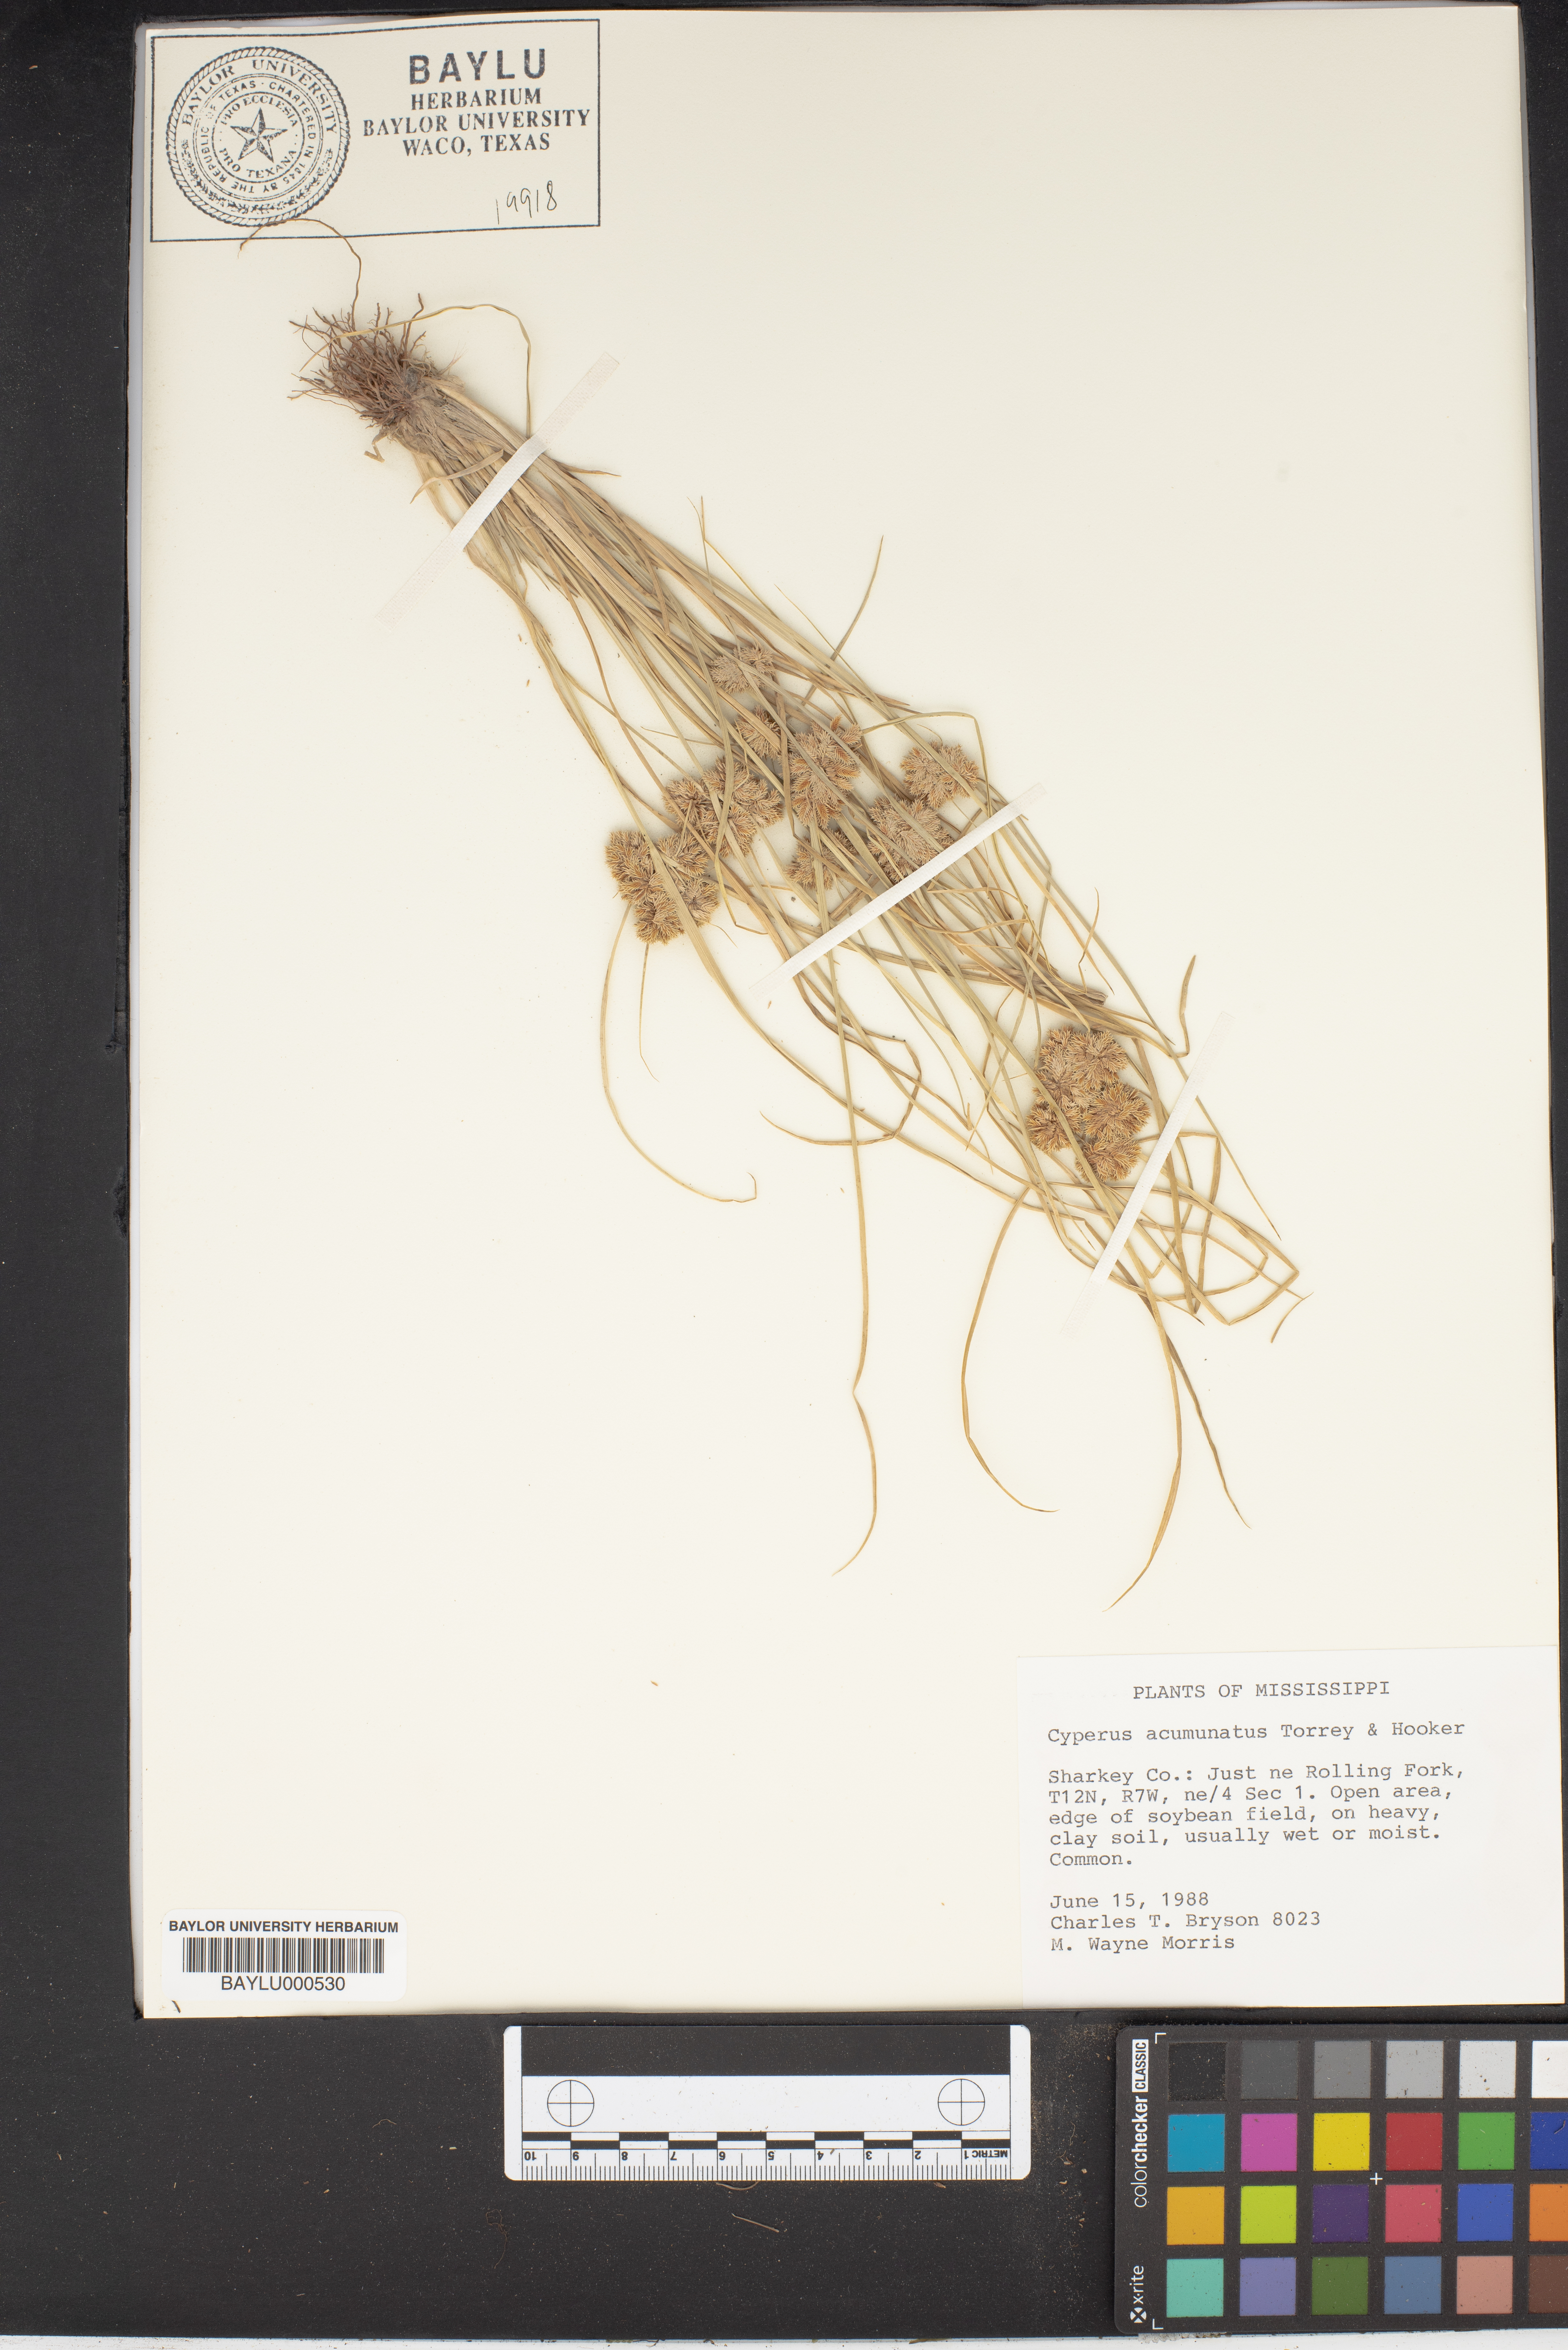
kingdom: Plantae
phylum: Tracheophyta
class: Liliopsida
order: Poales
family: Cyperaceae
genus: Cyperus
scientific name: Cyperus acuminatus
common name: Short-pointed cyperus
